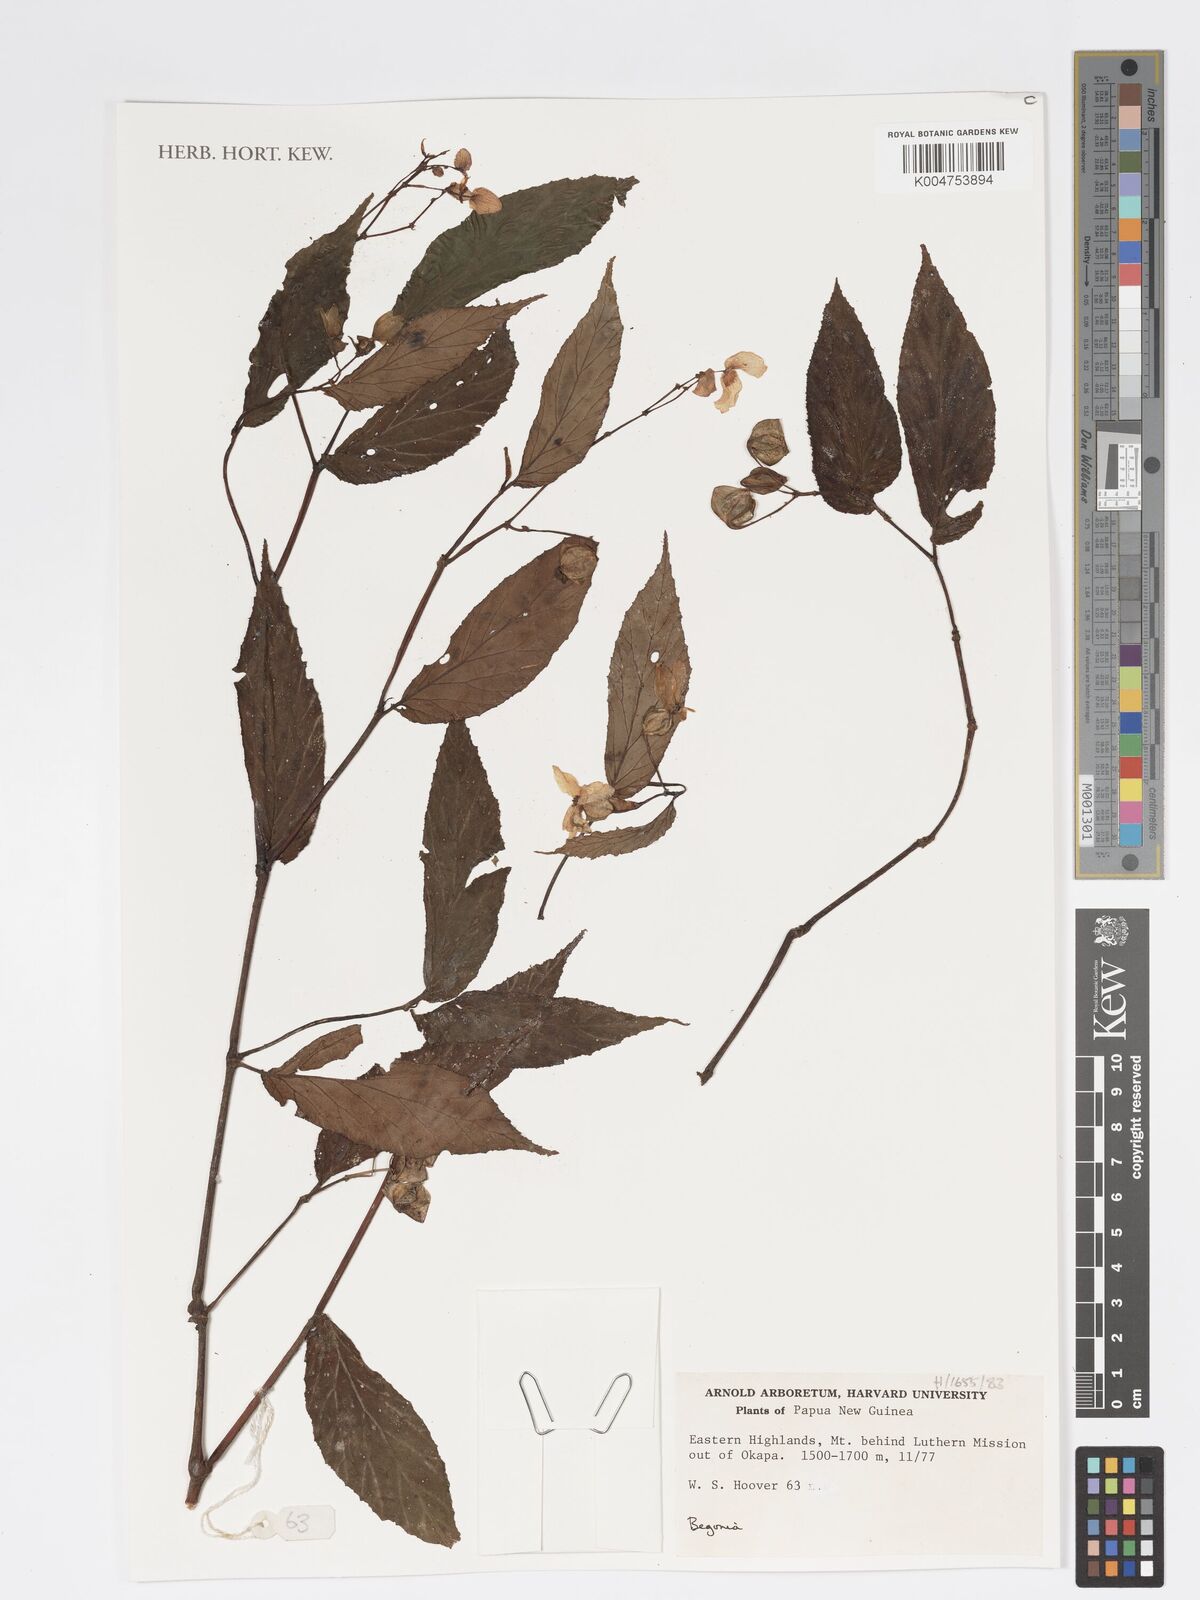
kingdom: Plantae
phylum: Tracheophyta
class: Magnoliopsida
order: Cucurbitales
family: Begoniaceae
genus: Begonia
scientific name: Begonia
